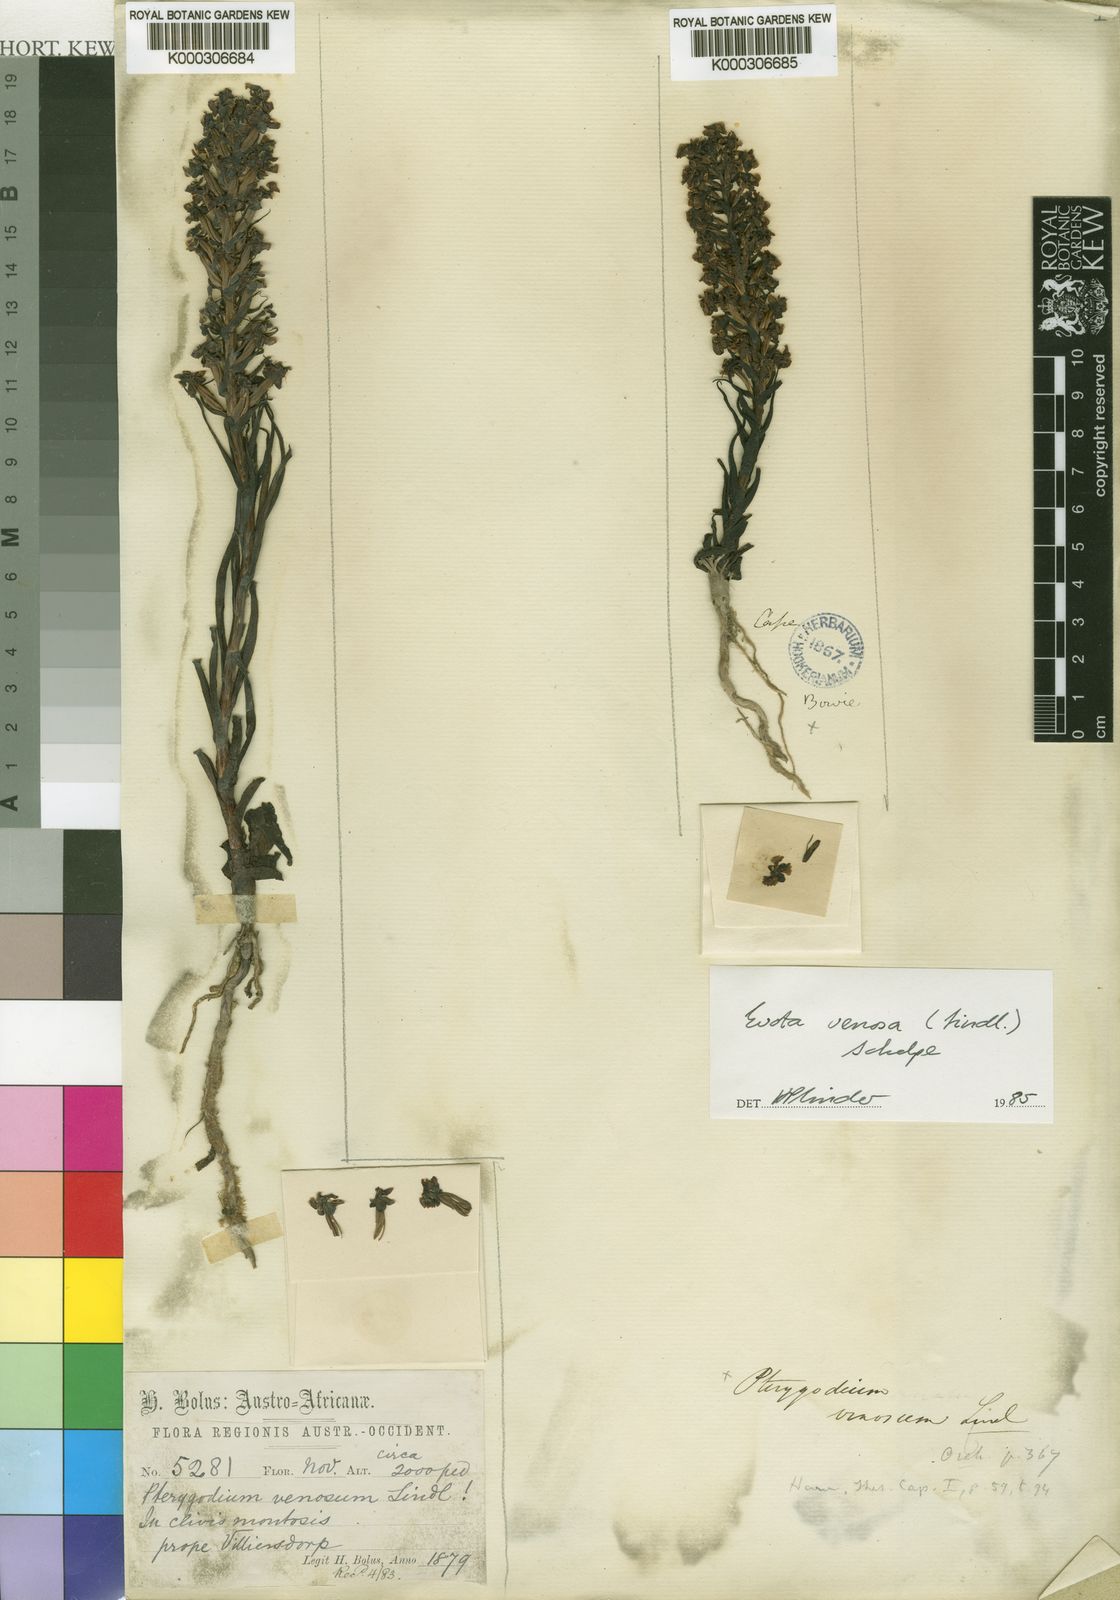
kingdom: Plantae
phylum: Tracheophyta
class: Liliopsida
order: Asparagales
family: Orchidaceae
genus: Ceratandra
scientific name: Ceratandra venosa
